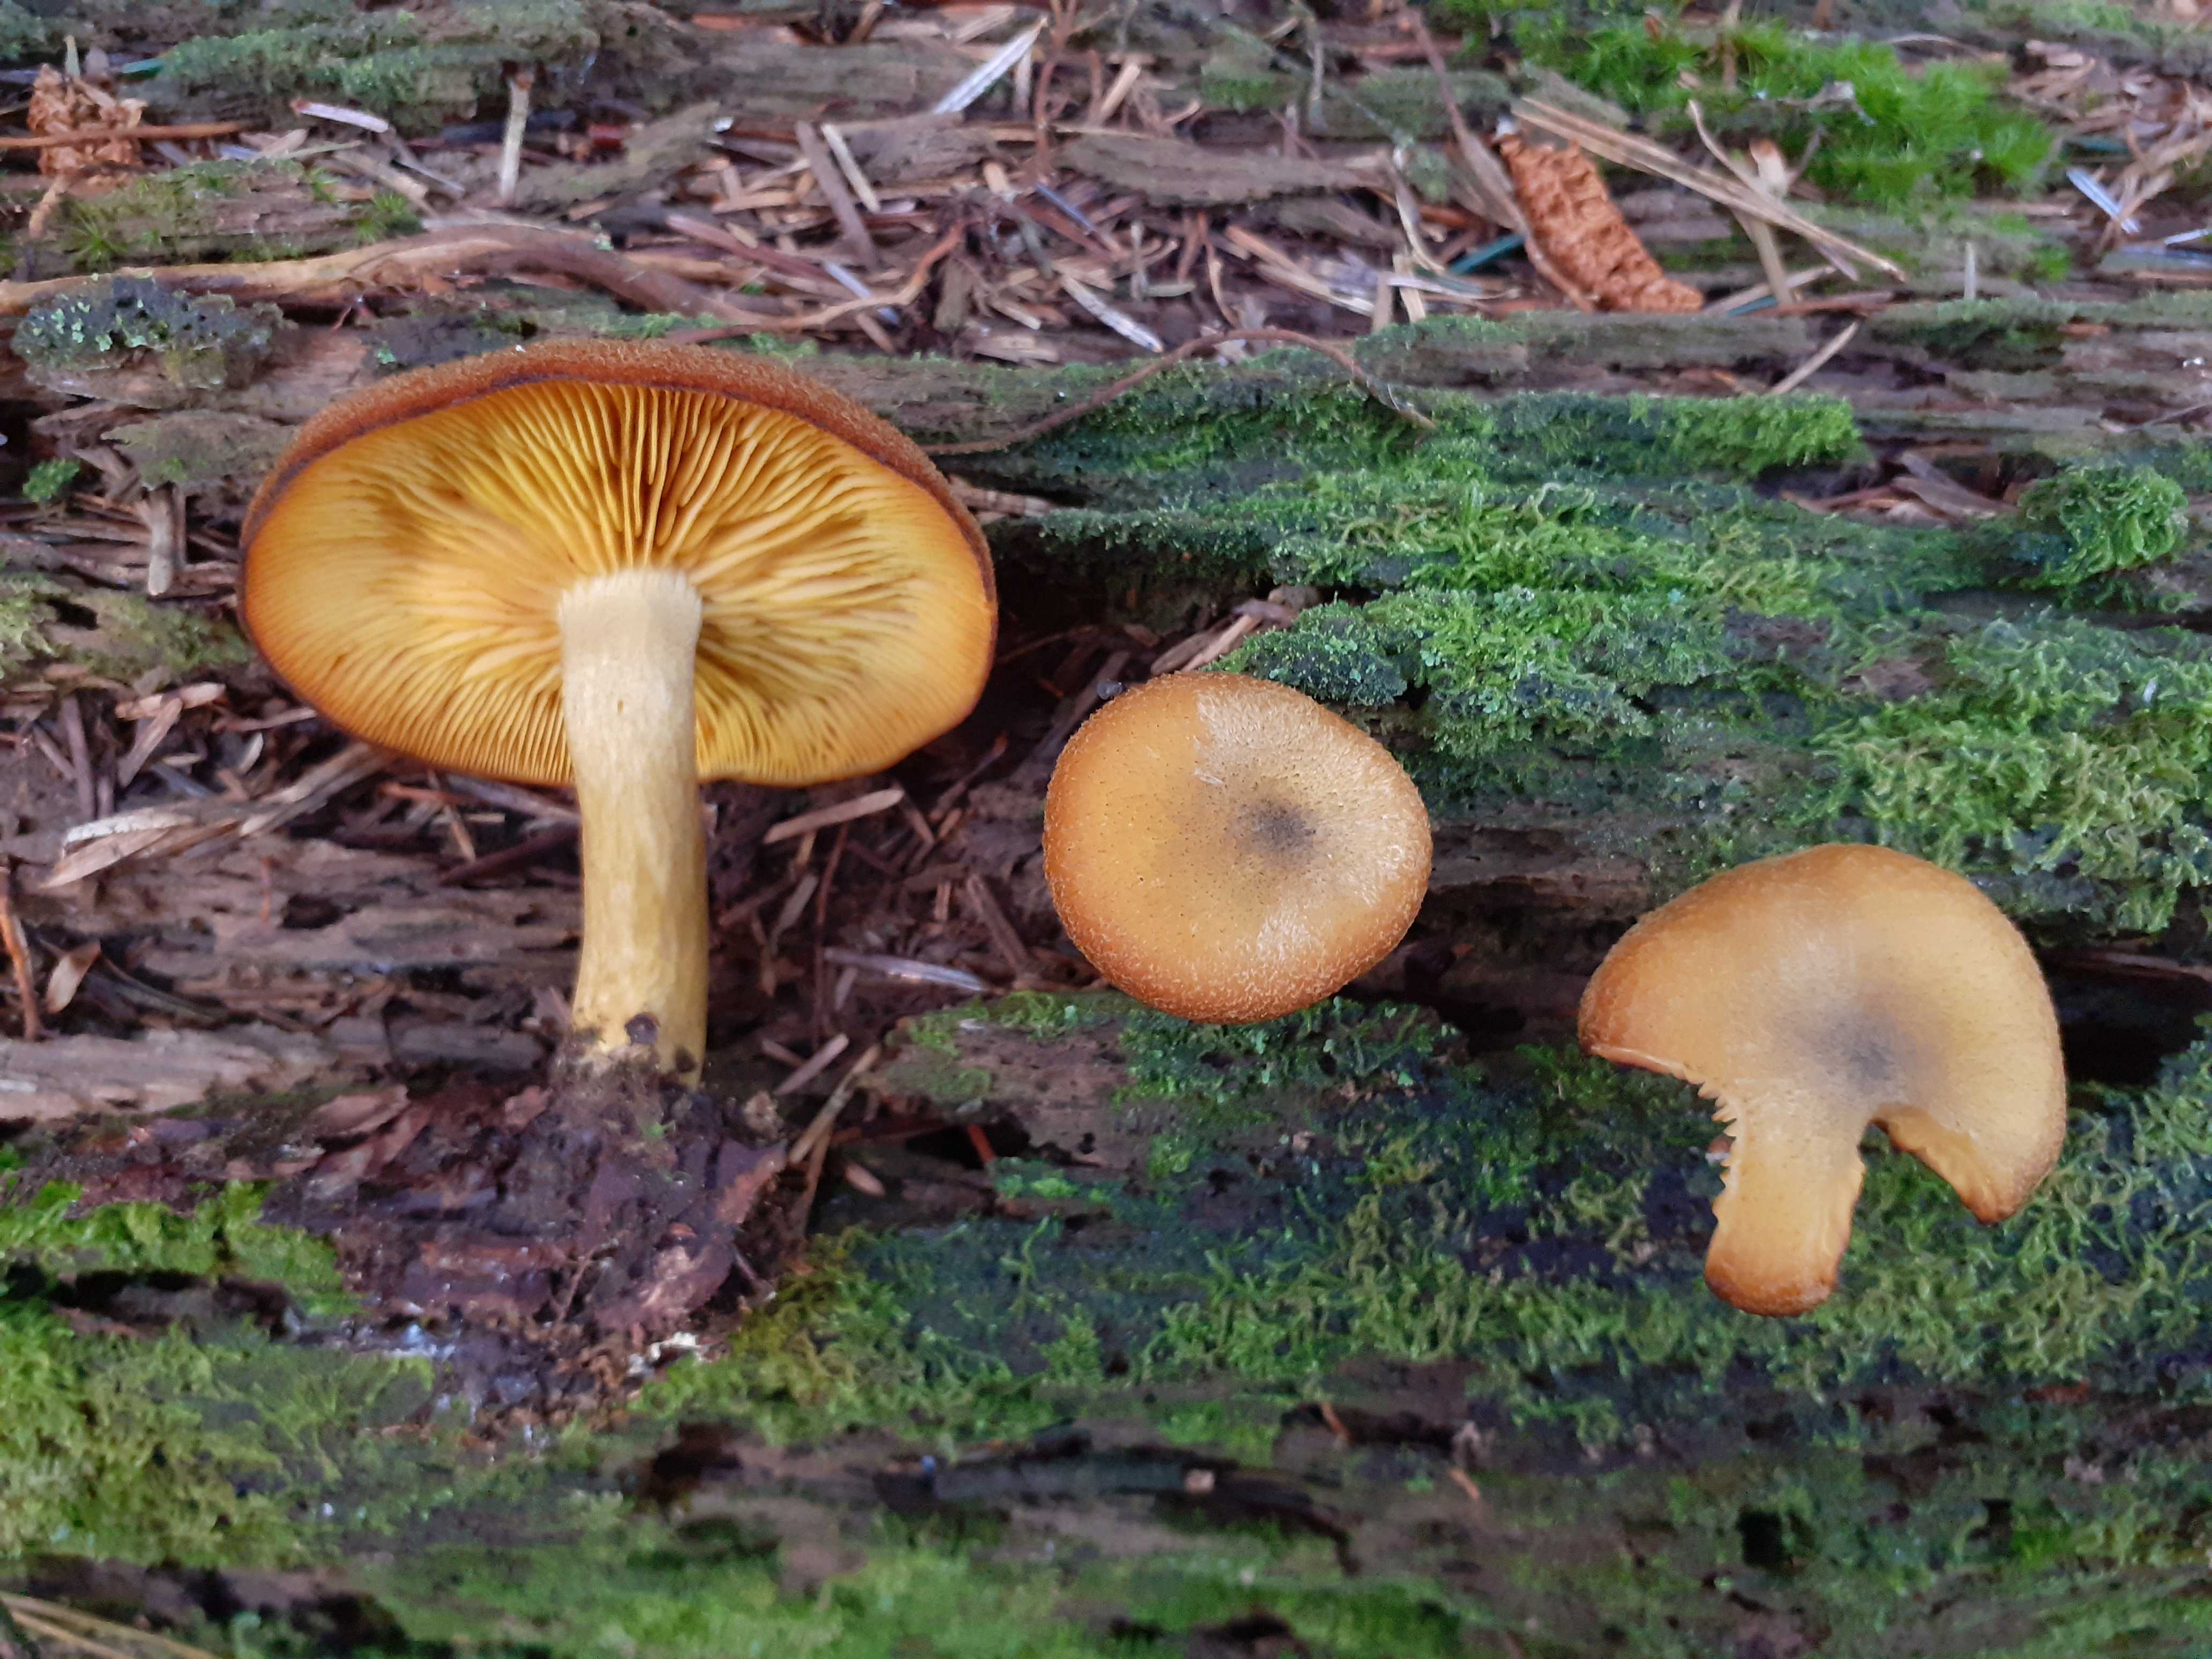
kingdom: Fungi
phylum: Basidiomycota
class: Agaricomycetes
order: Agaricales
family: Tricholomataceae
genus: Tricholomopsis
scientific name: Tricholomopsis decora
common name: sortskællet væbnerhat
